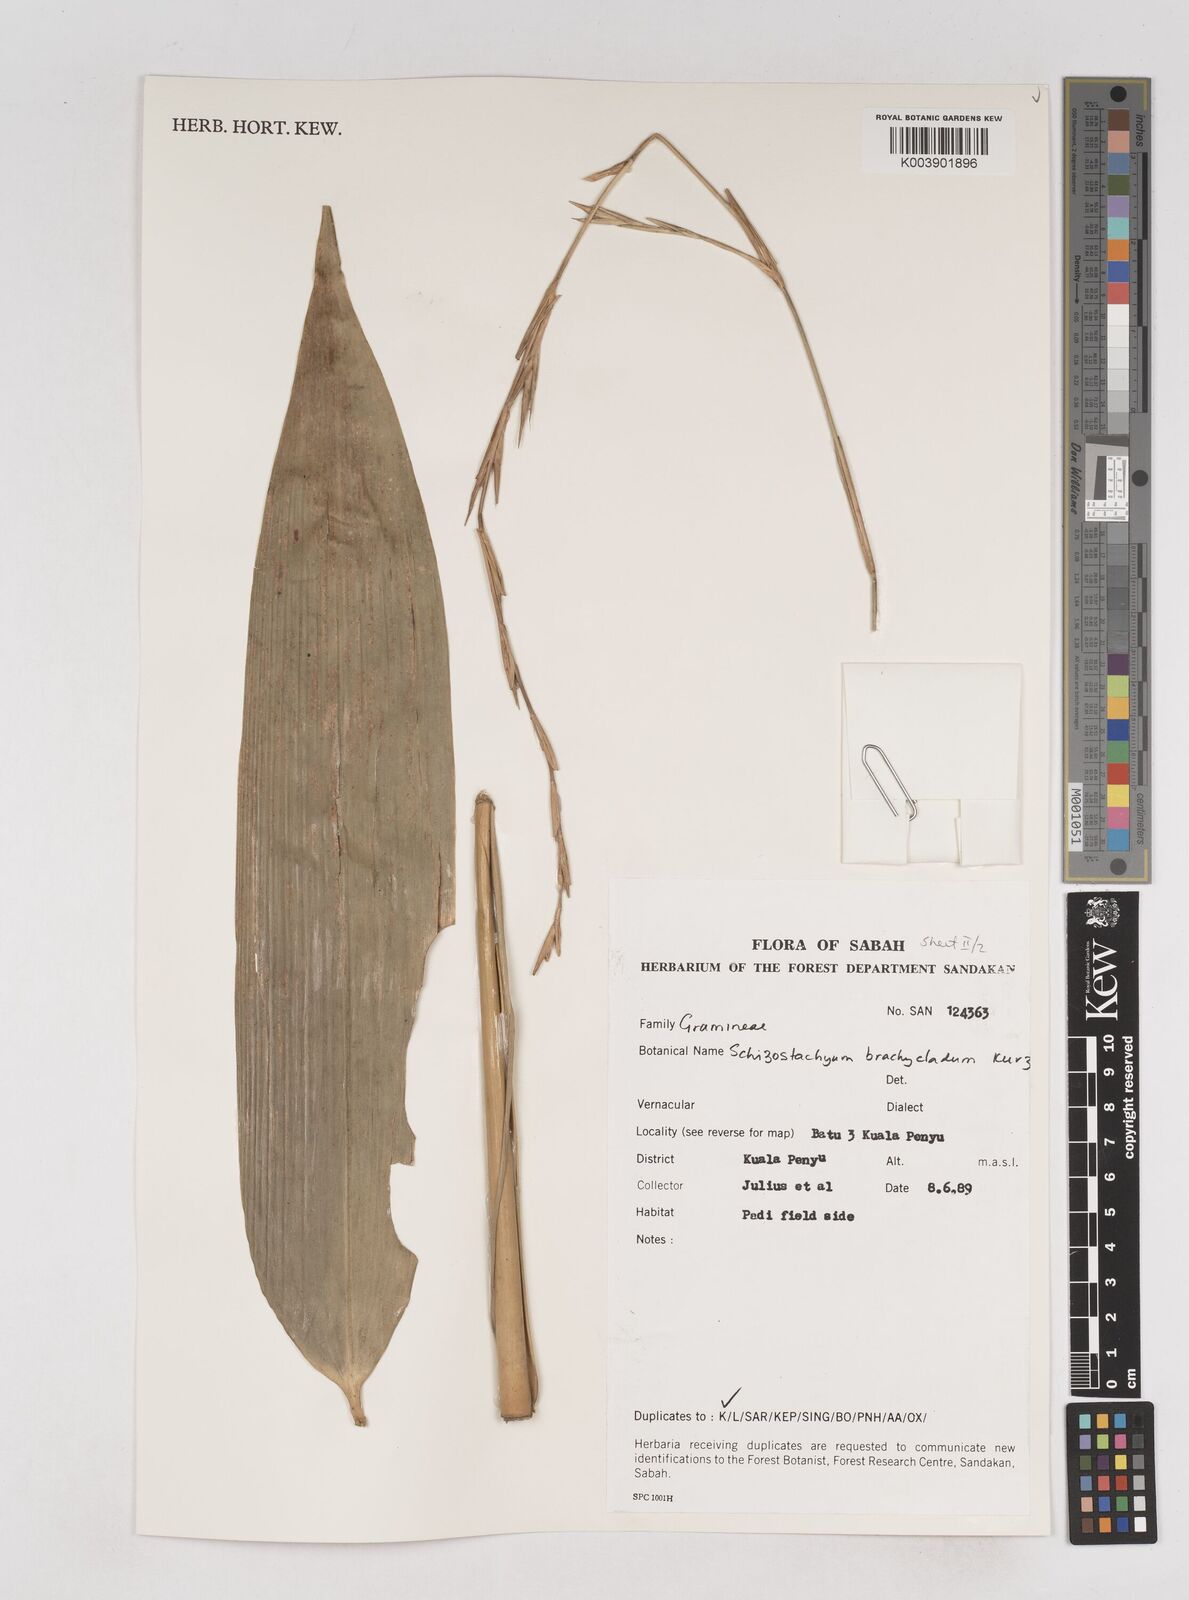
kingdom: Plantae
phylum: Tracheophyta
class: Liliopsida
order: Poales
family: Poaceae
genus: Schizostachyum
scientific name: Schizostachyum brachycladum
